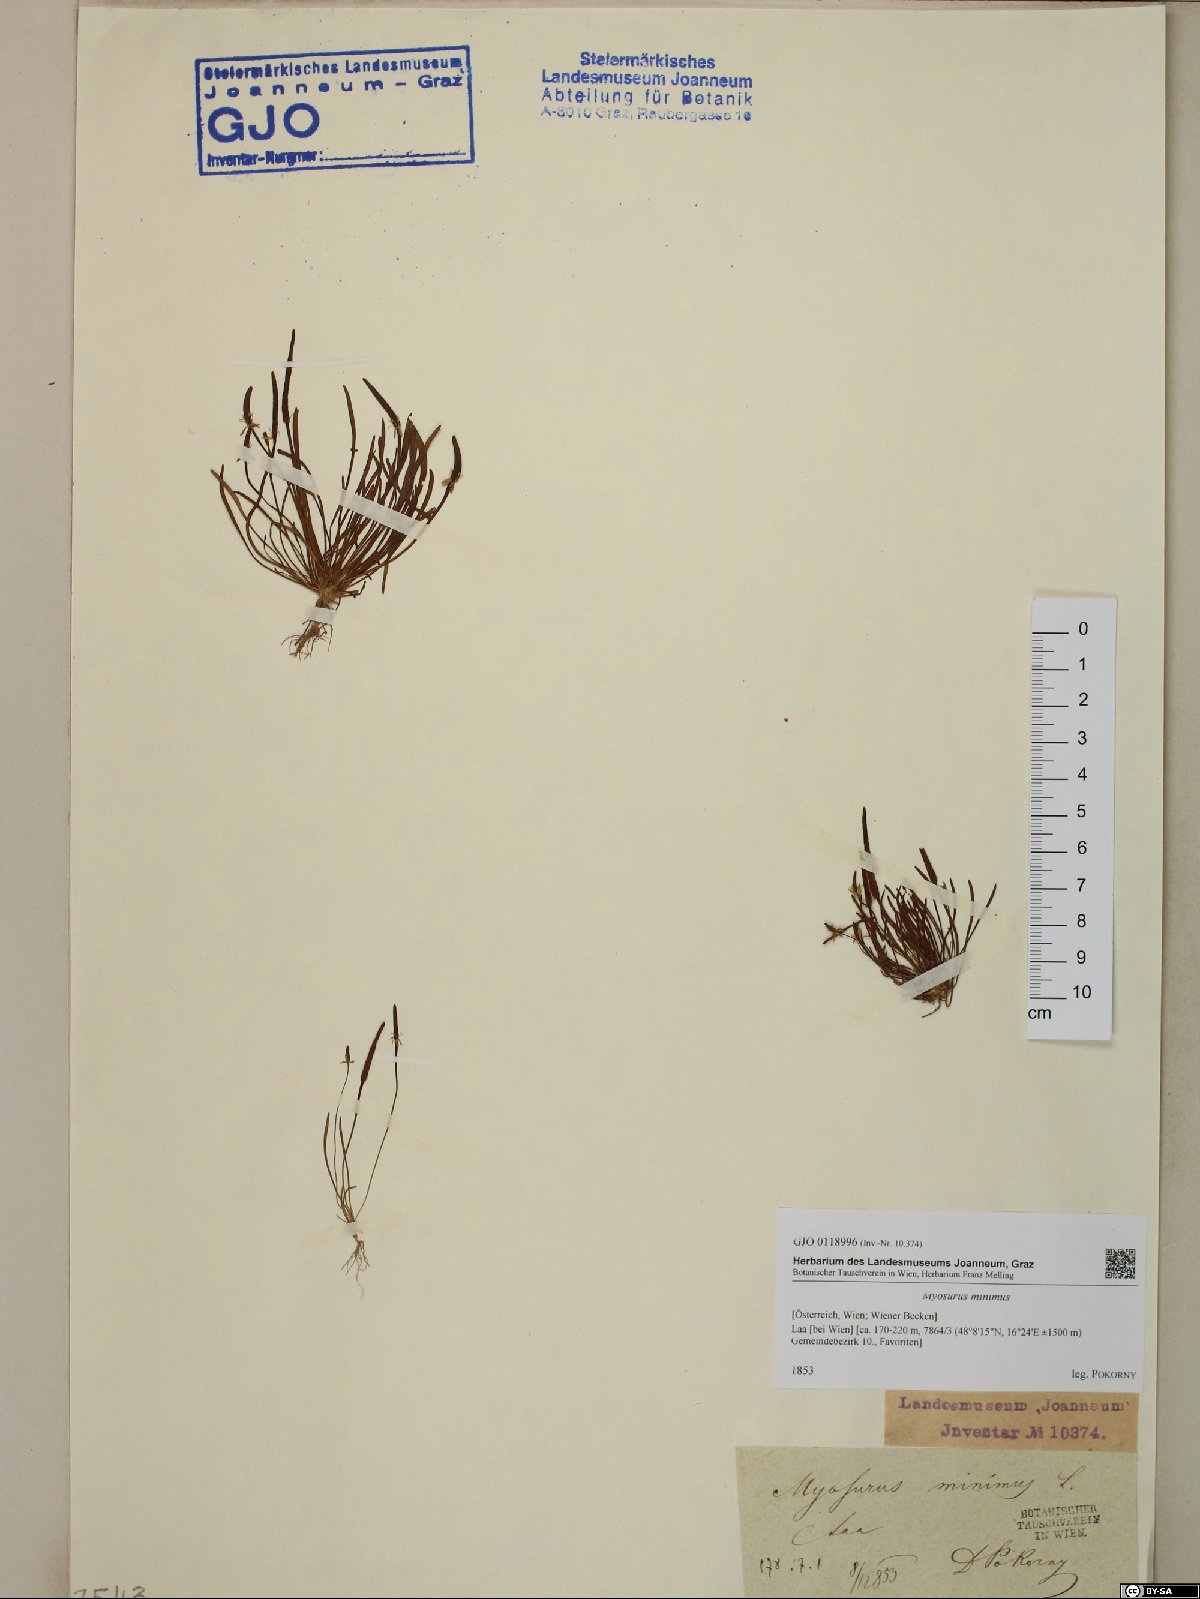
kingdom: Plantae
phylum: Tracheophyta
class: Magnoliopsida
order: Ranunculales
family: Ranunculaceae
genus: Myosurus
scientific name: Myosurus minimus
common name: Mousetail
